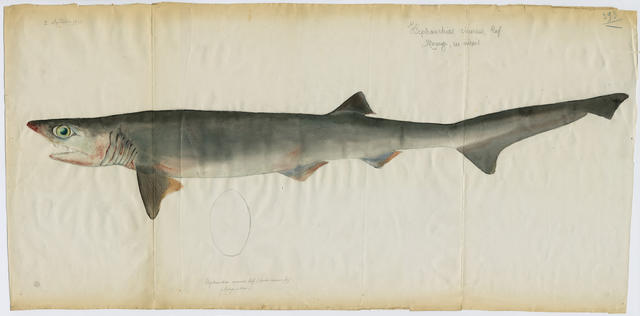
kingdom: Animalia
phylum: Chordata
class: Elasmobranchii
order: Hexanchiformes
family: Hexanchidae
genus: Heptranchias
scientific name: Heptranchias perlo
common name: Sharpnose sevengill shark
